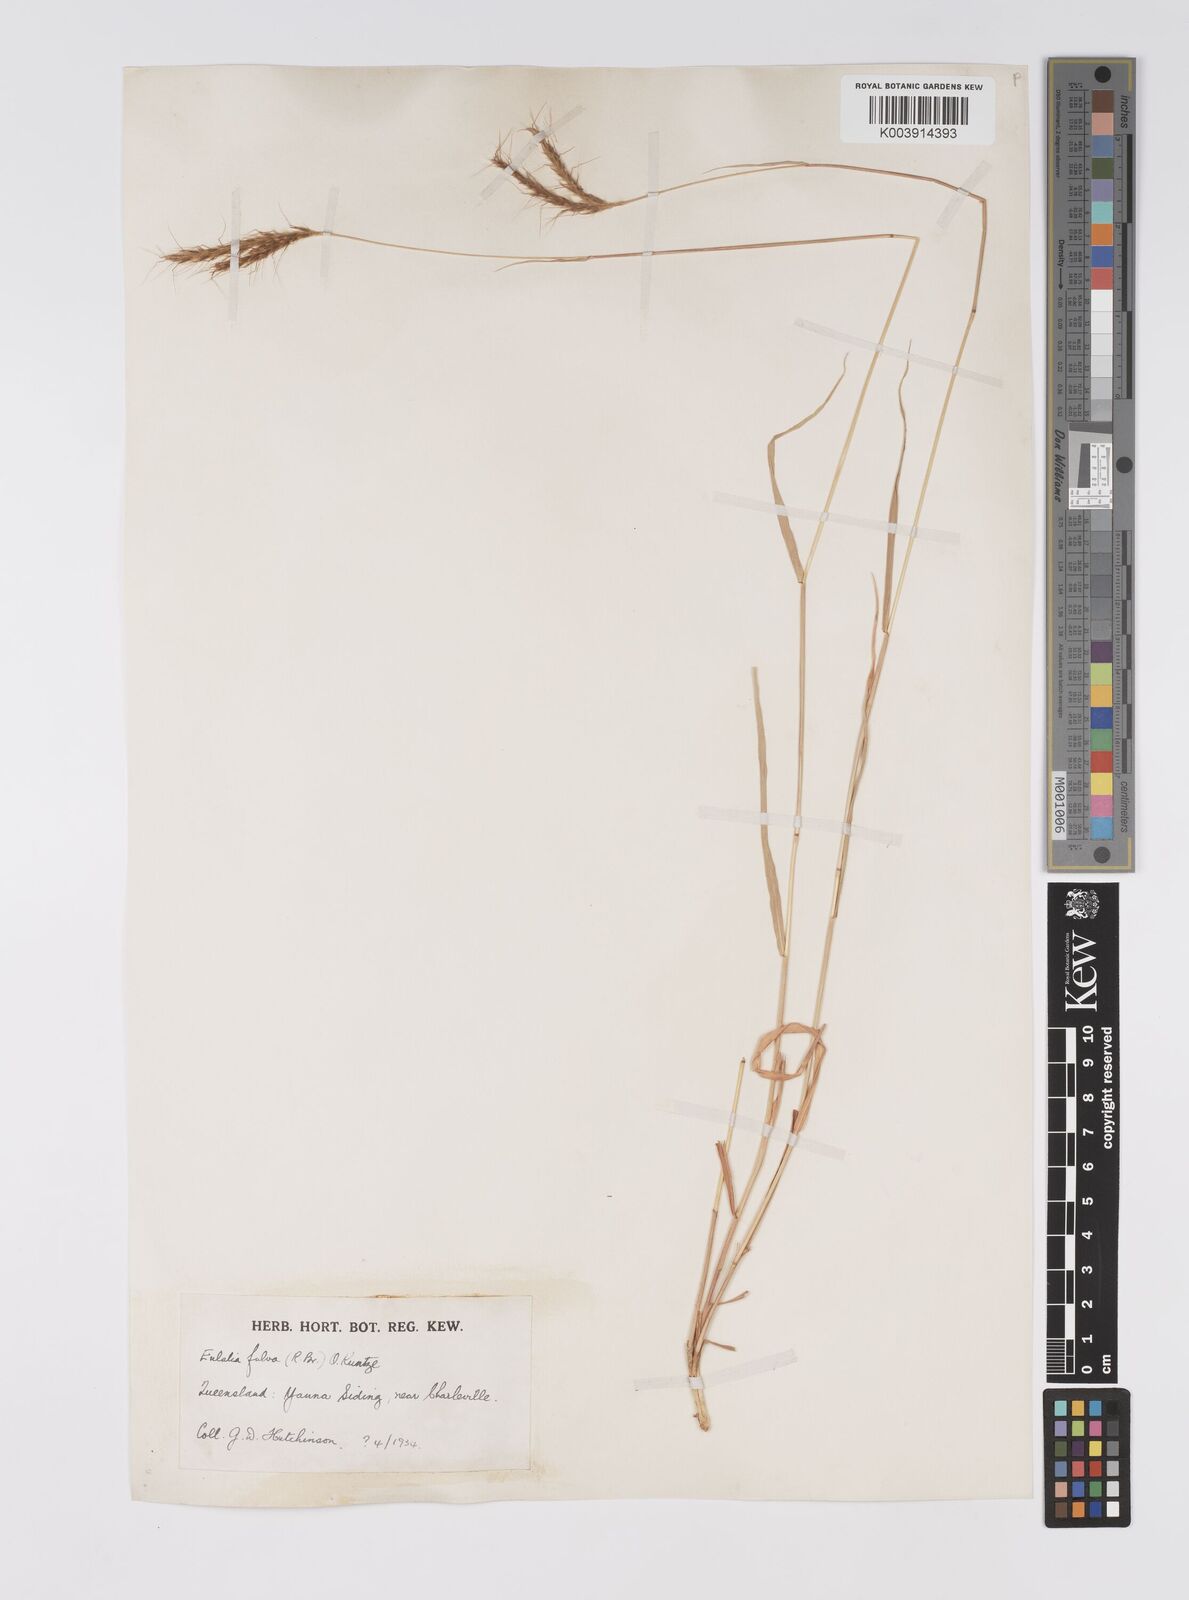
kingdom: Plantae
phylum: Tracheophyta
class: Liliopsida
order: Poales
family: Poaceae
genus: Eulalia
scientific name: Eulalia aurea
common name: Silky browntop
